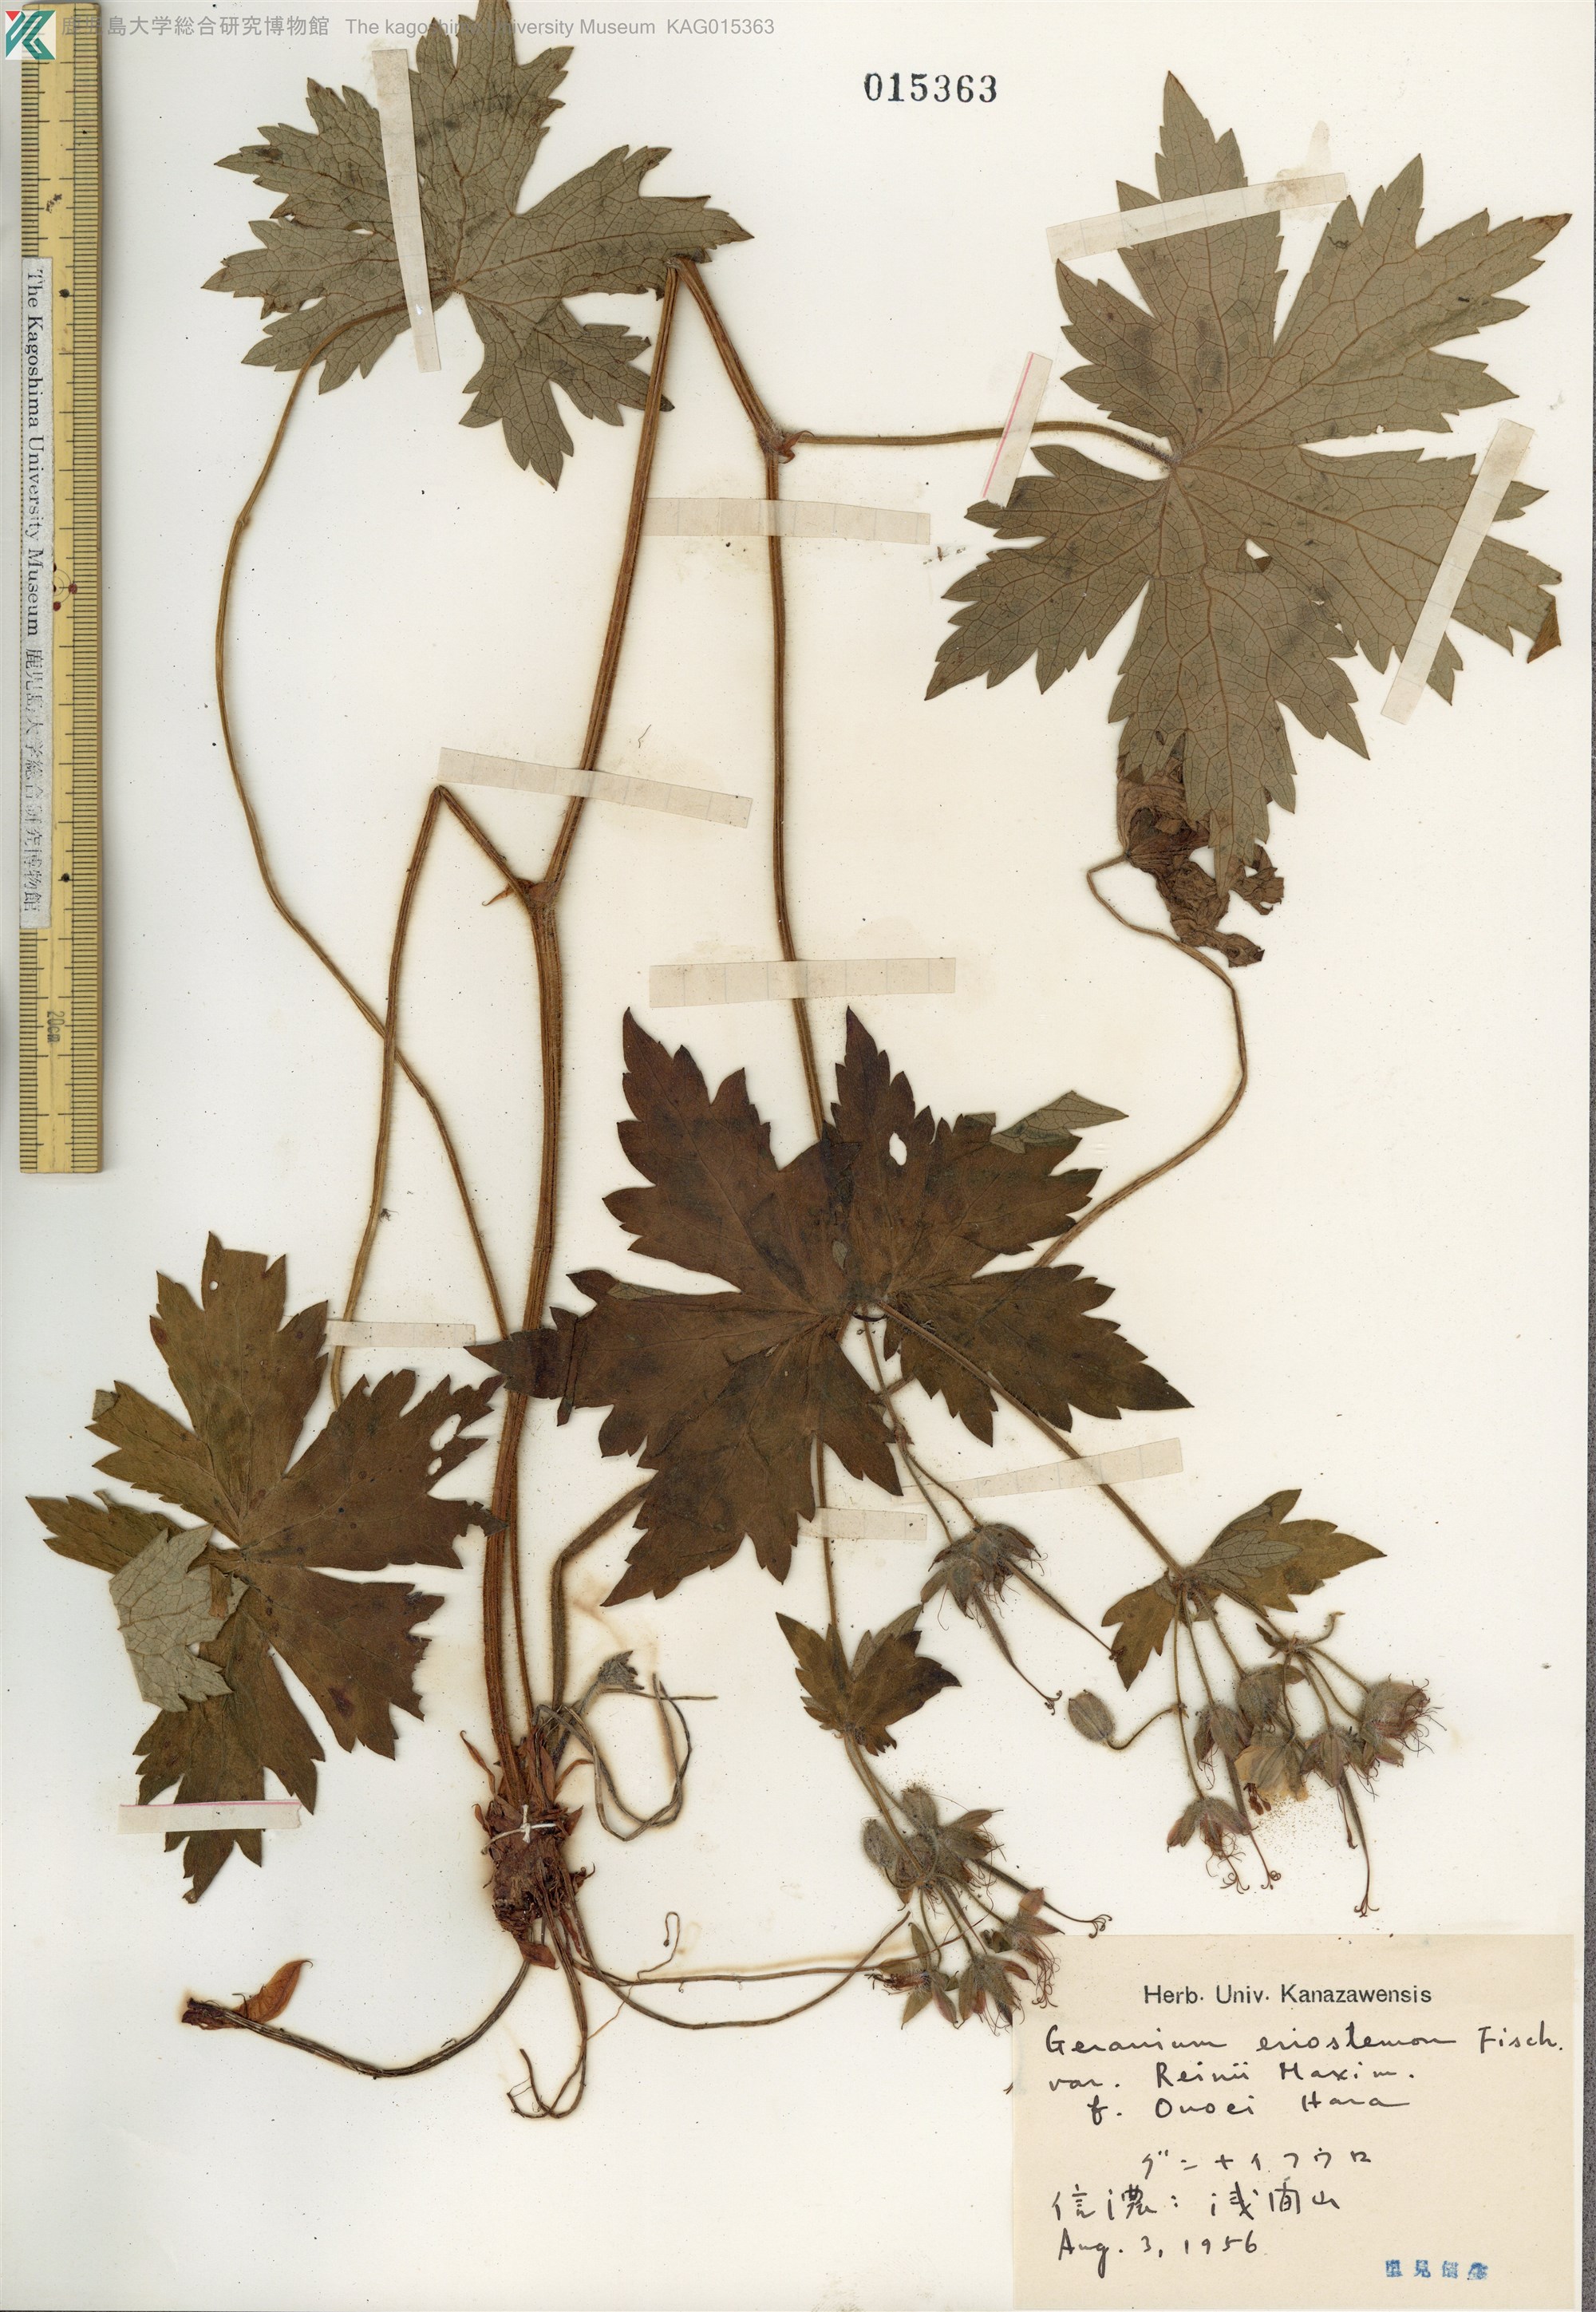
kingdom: Plantae
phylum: Tracheophyta
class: Magnoliopsida
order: Geraniales
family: Geraniaceae
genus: Geranium
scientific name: Geranium reinii
